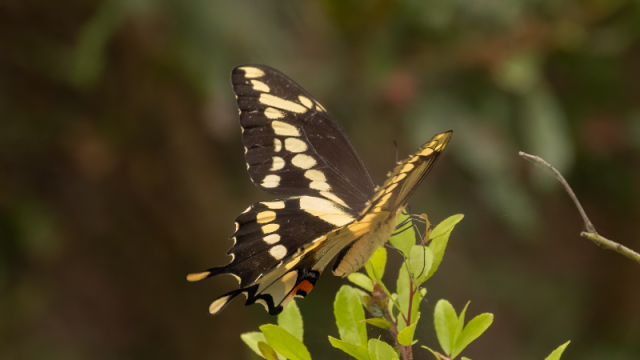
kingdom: Animalia
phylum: Arthropoda
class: Insecta
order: Lepidoptera
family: Papilionidae
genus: Papilio
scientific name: Papilio cresphontes
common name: Eastern Giant Swallowtail
